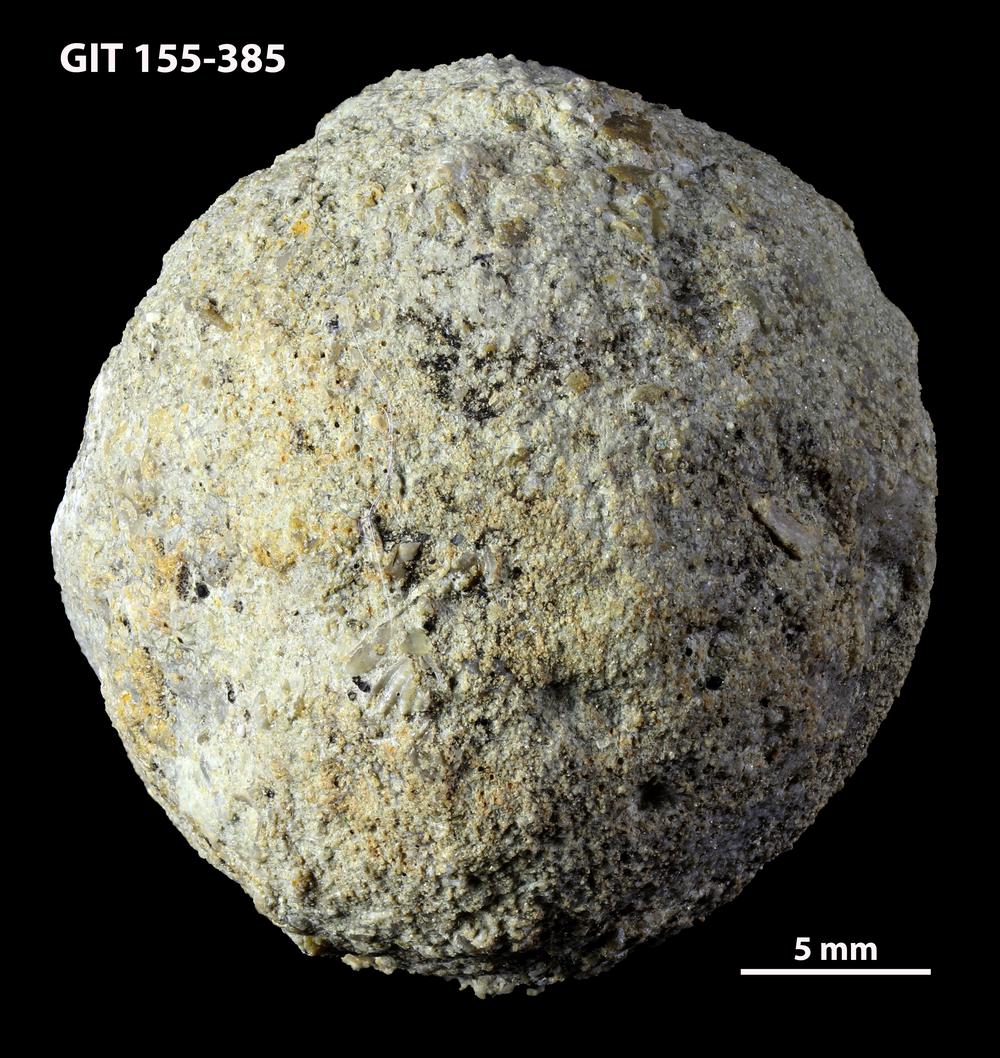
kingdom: Animalia
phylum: Bryozoa
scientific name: Bryozoa
